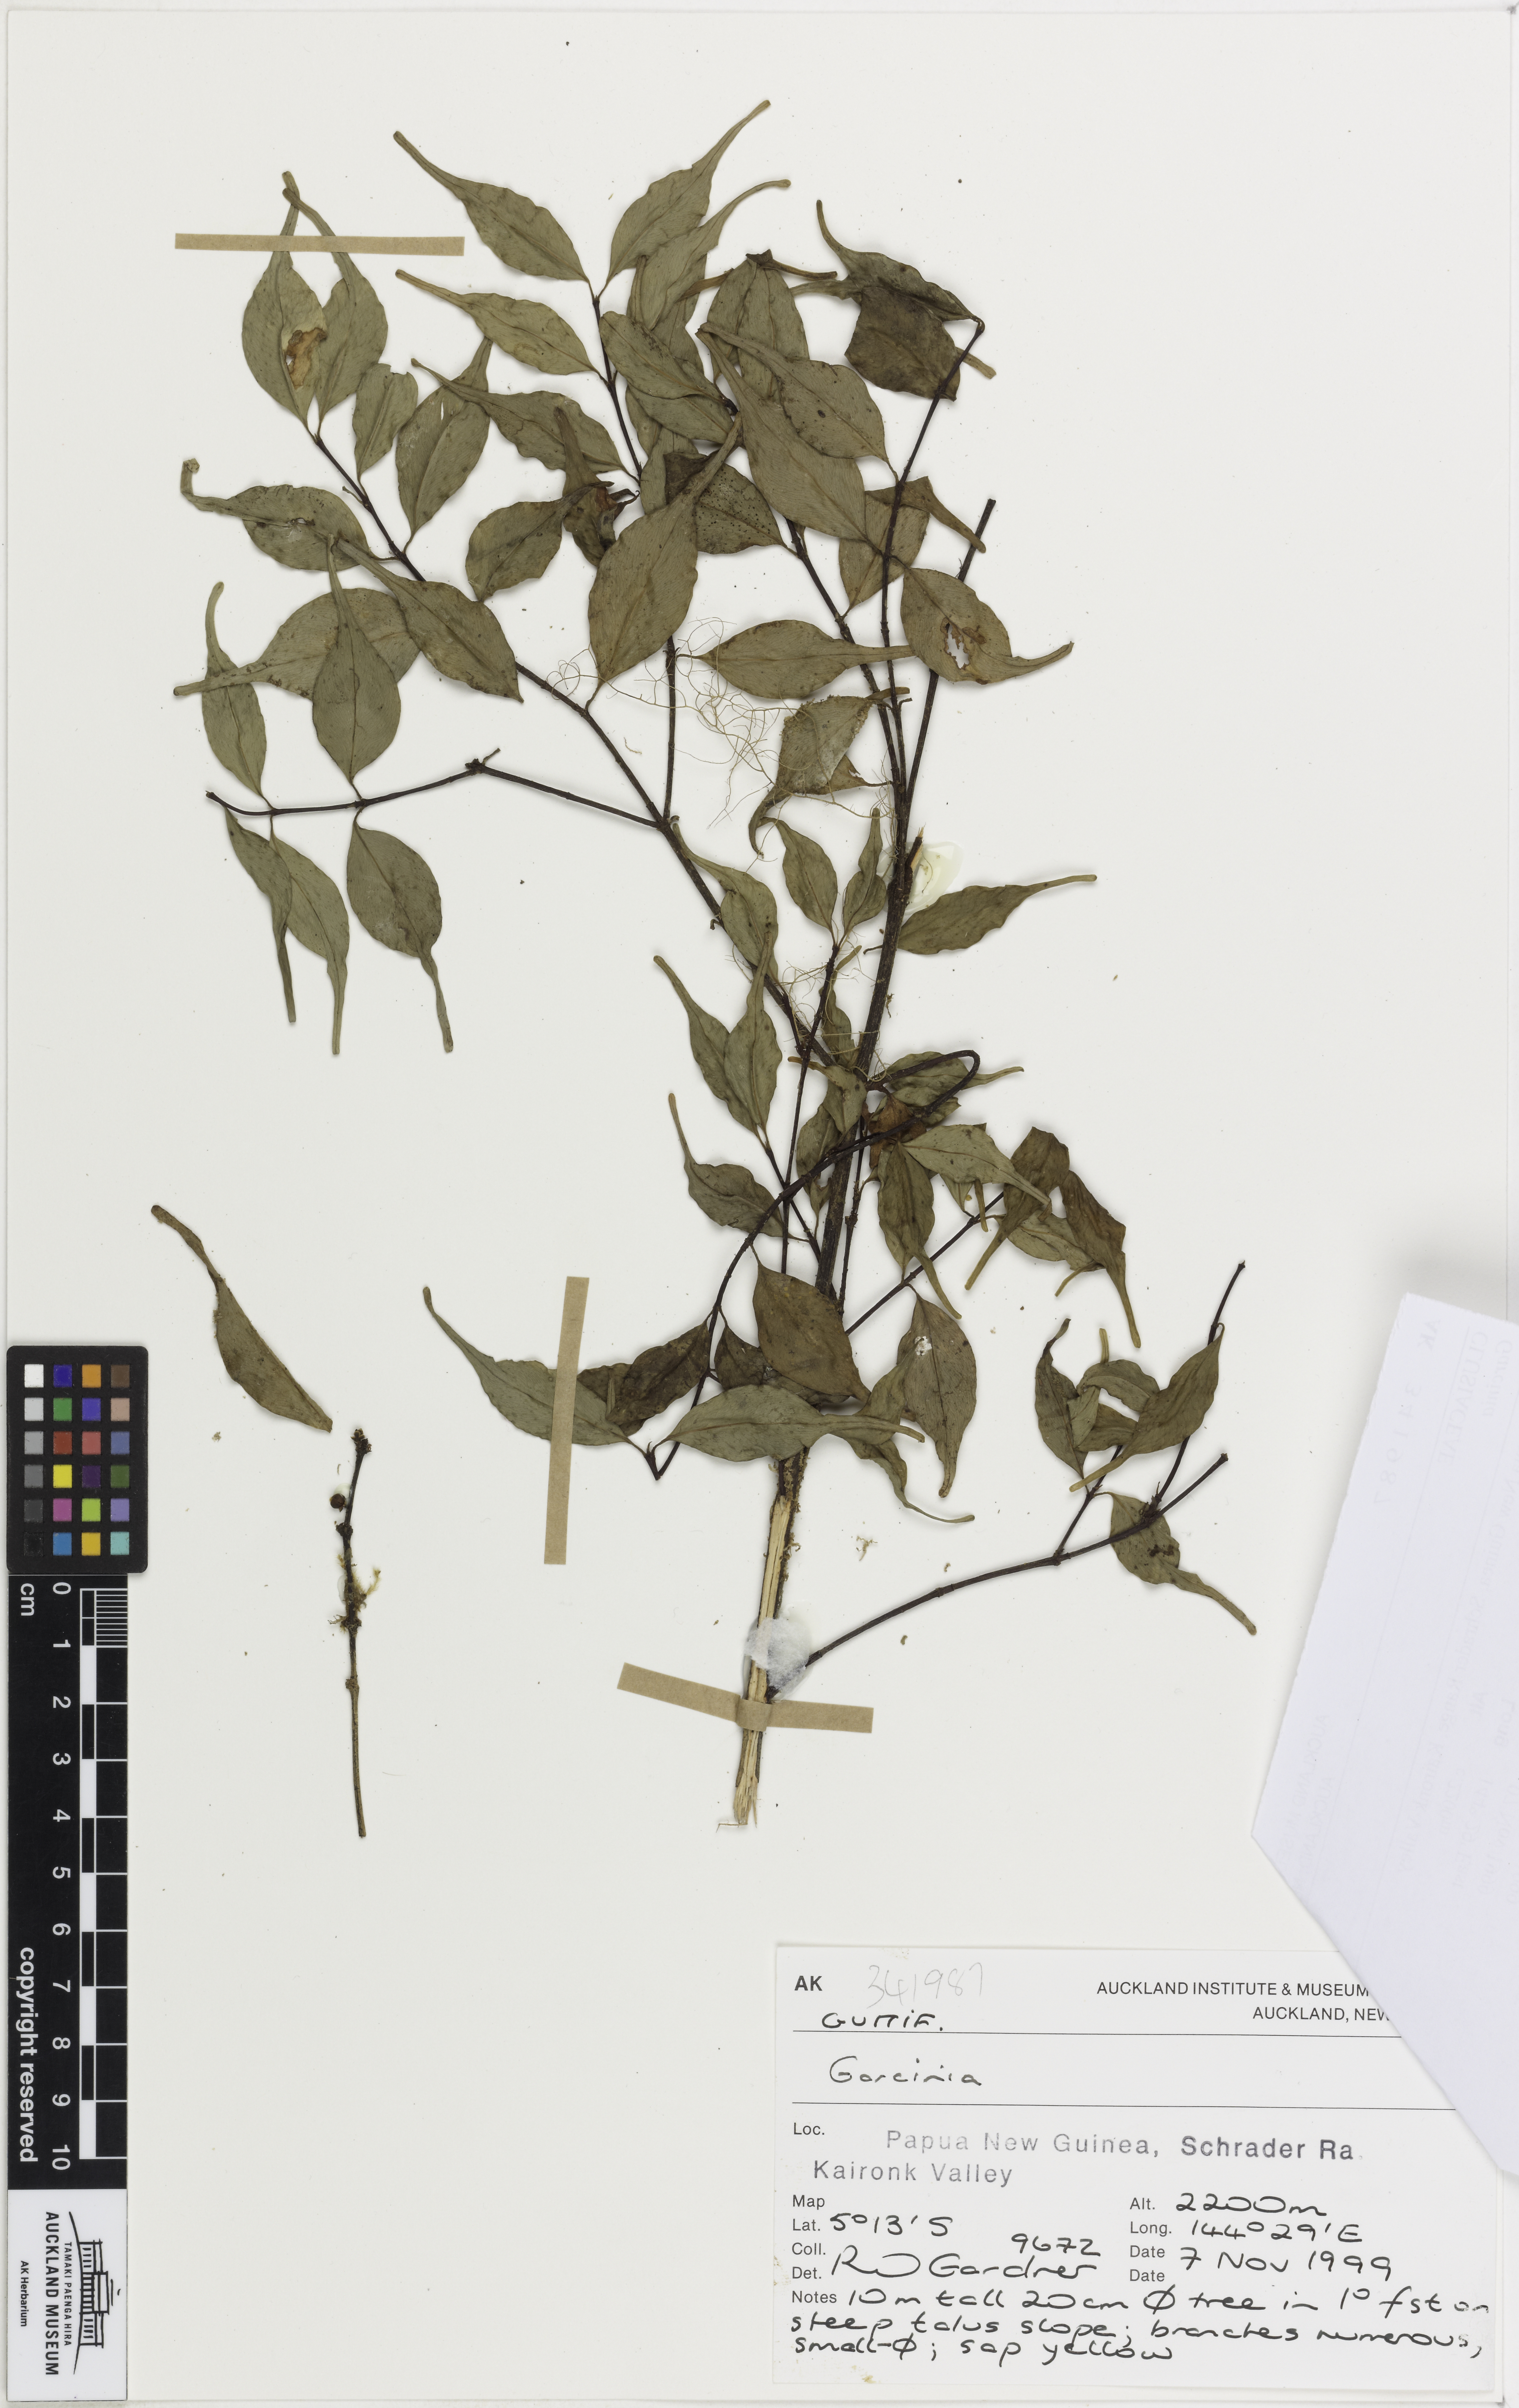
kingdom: Plantae
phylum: Tracheophyta
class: Magnoliopsida
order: Malpighiales
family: Clusiaceae
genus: Garcinia
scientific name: Garcinia
